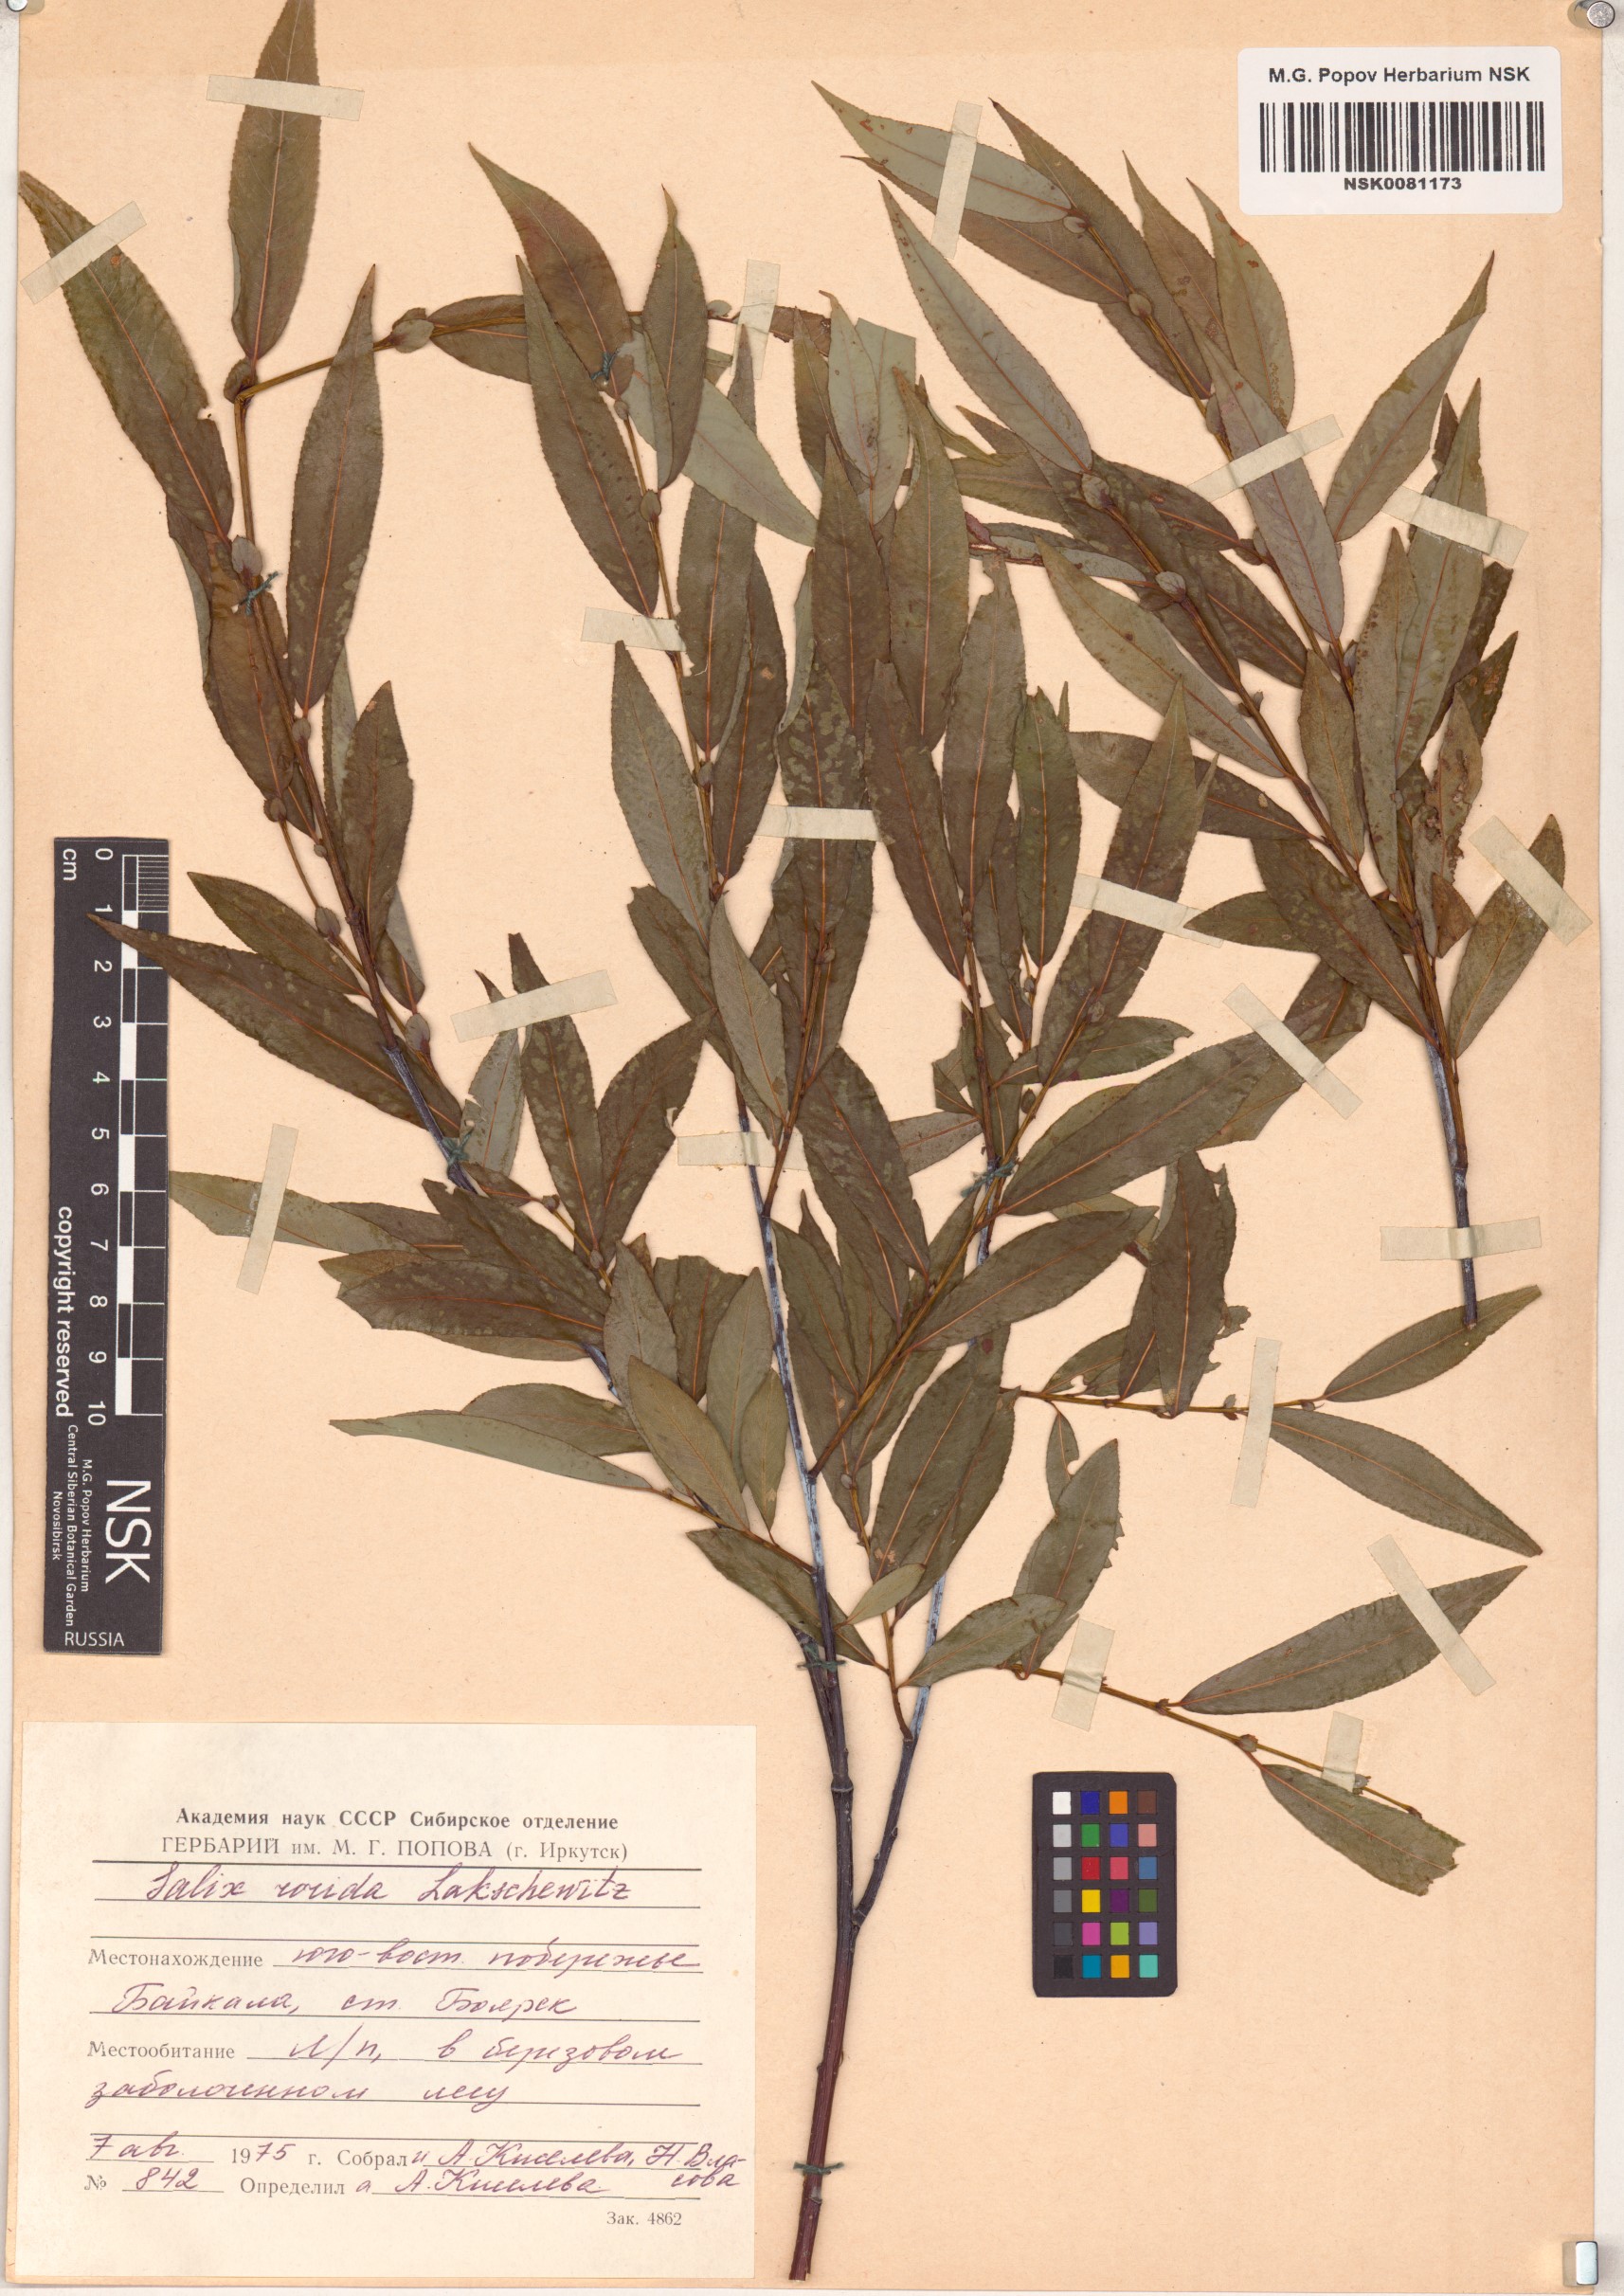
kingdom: Plantae
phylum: Tracheophyta
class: Magnoliopsida
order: Malpighiales
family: Salicaceae
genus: Salix
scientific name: Salix rorida
